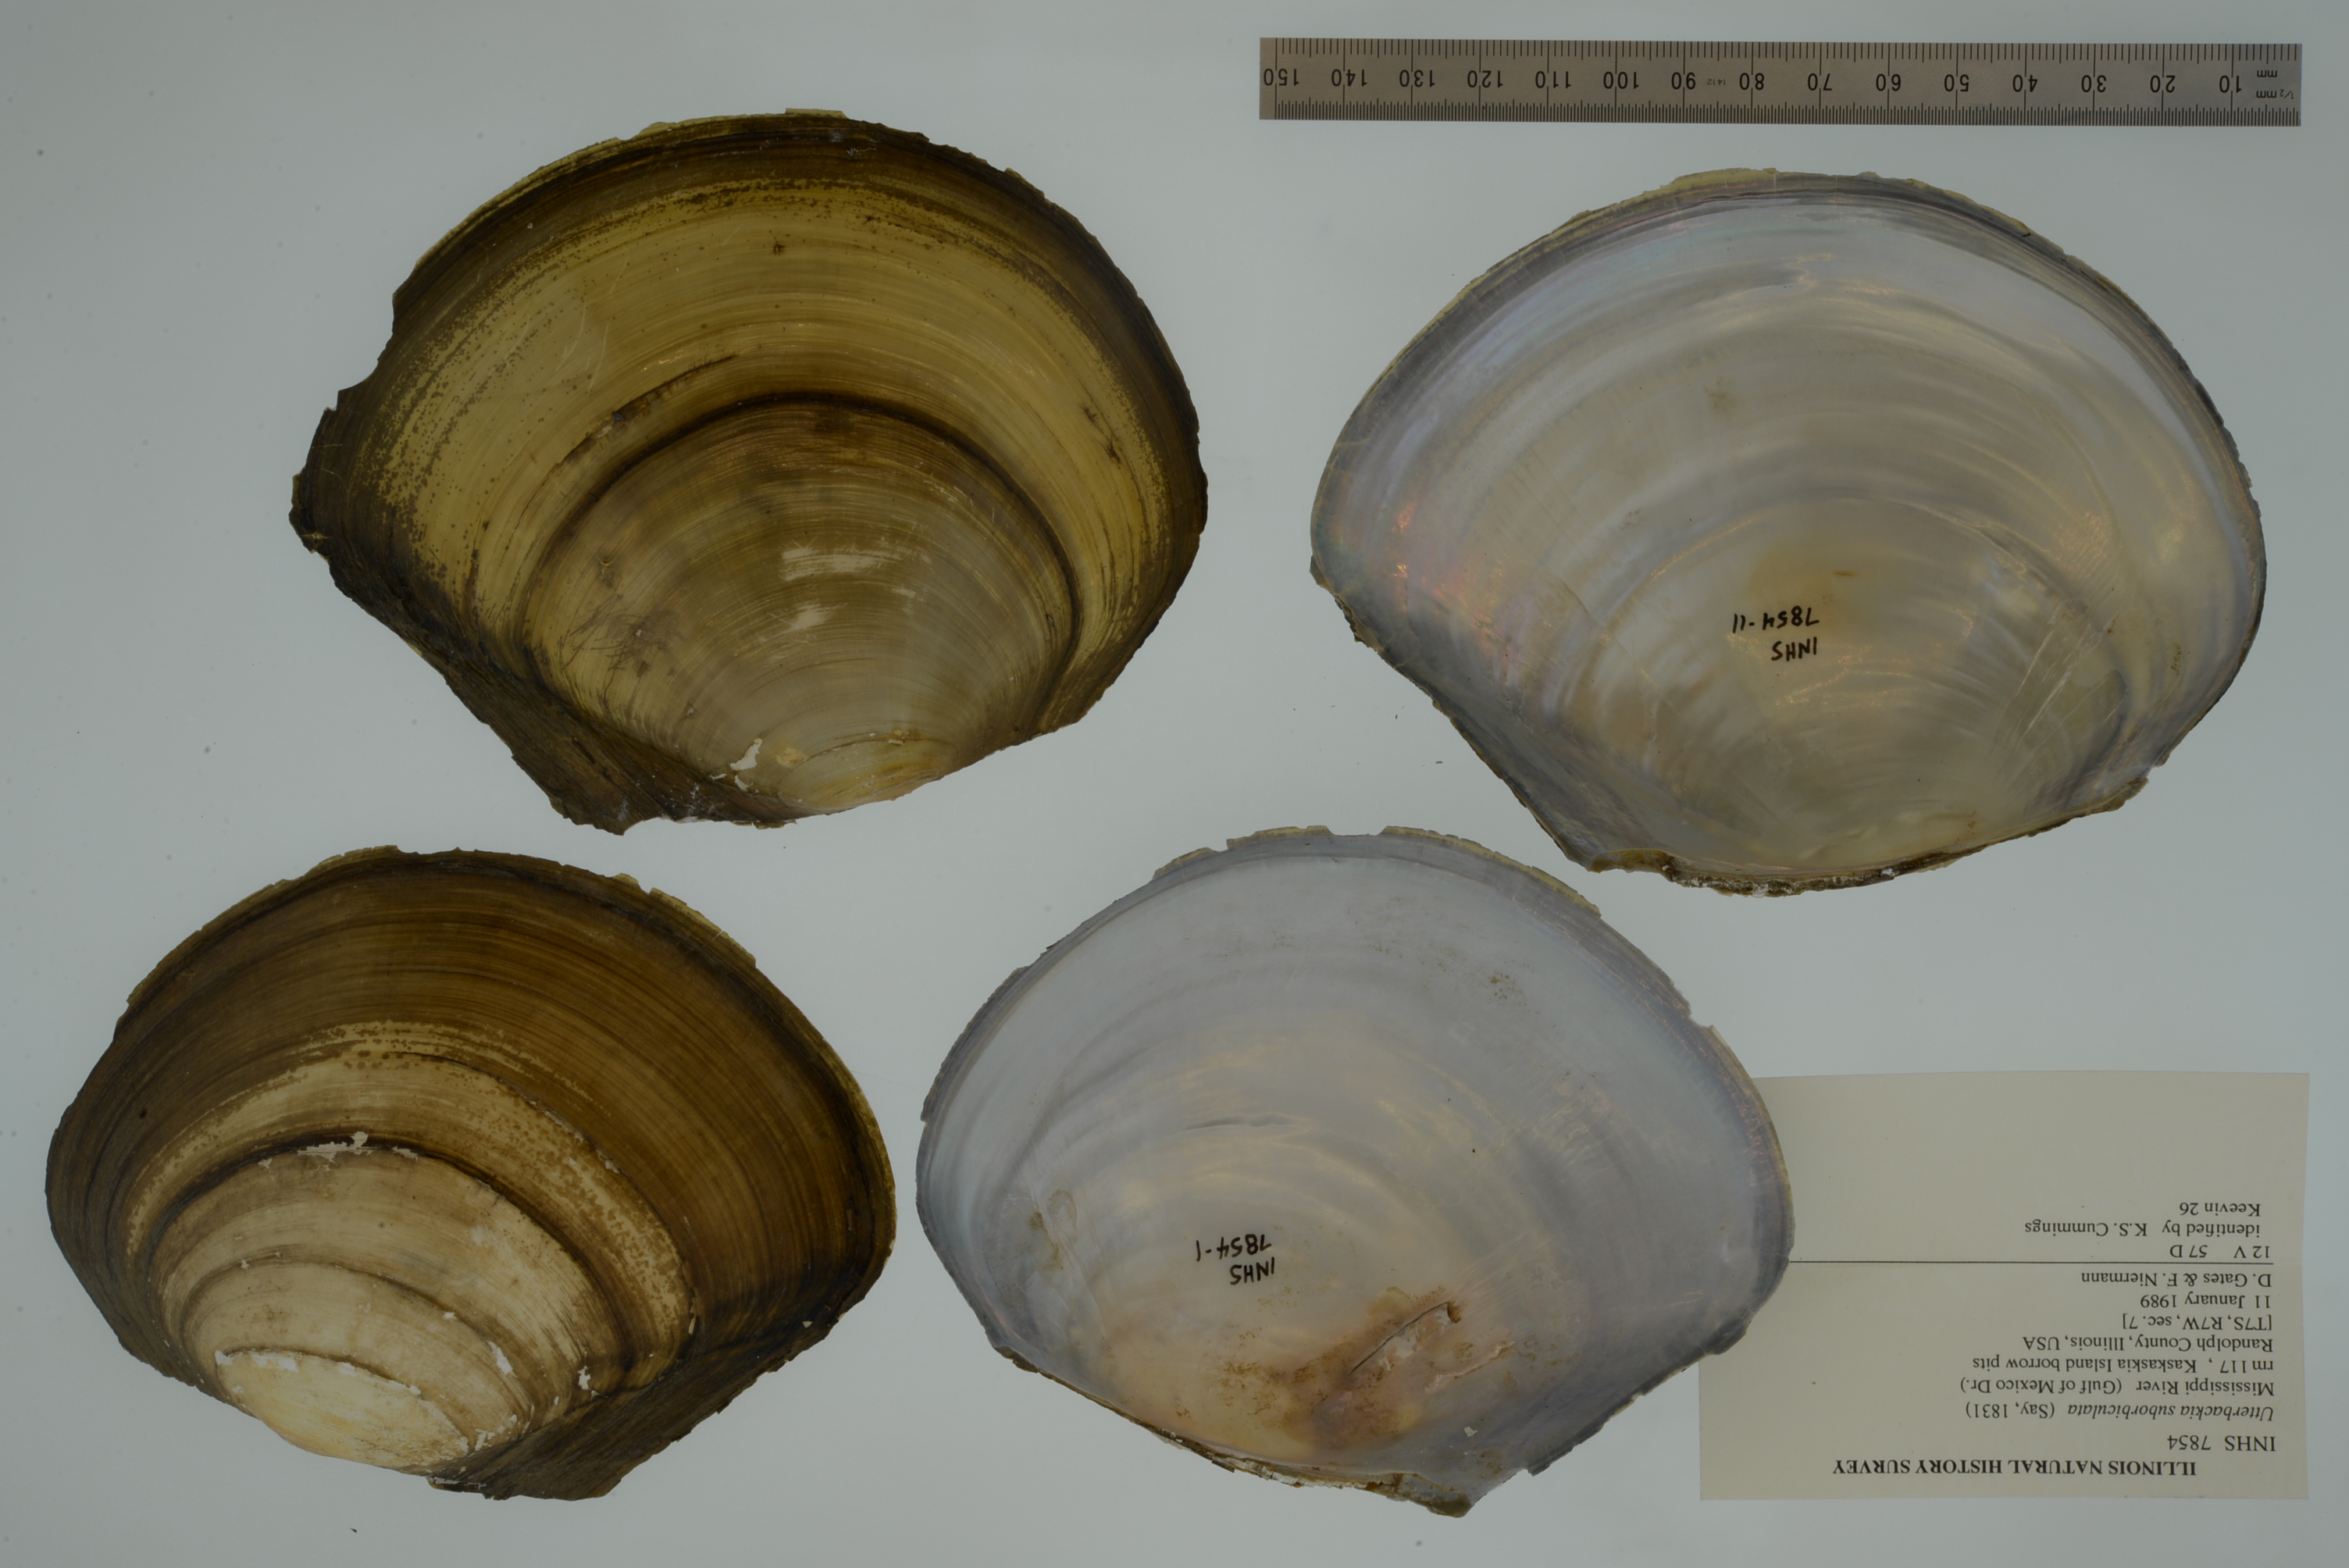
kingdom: Animalia
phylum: Mollusca
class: Bivalvia
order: Unionida
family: Unionidae
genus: Utterbackiana
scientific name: Utterbackiana suborbiculata
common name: Flat floater
